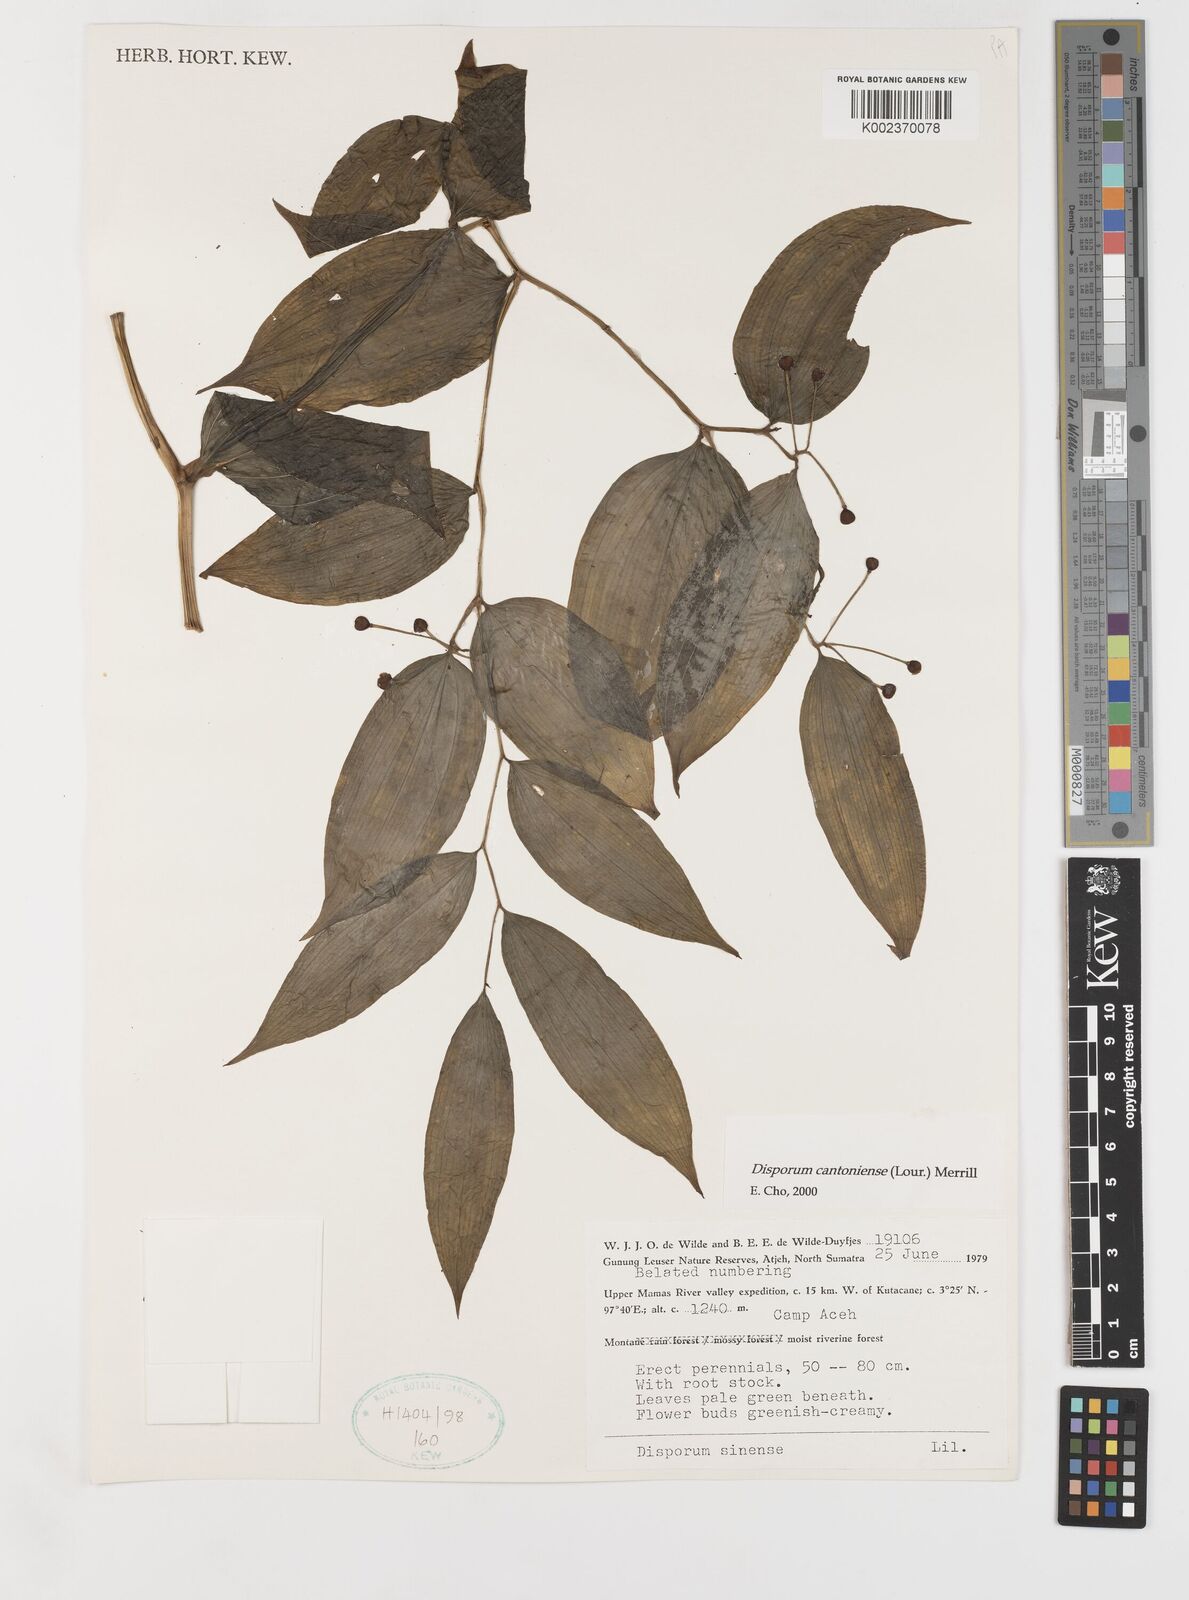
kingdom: Plantae
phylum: Tracheophyta
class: Liliopsida
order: Liliales
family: Colchicaceae
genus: Disporum
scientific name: Disporum cantoniense
